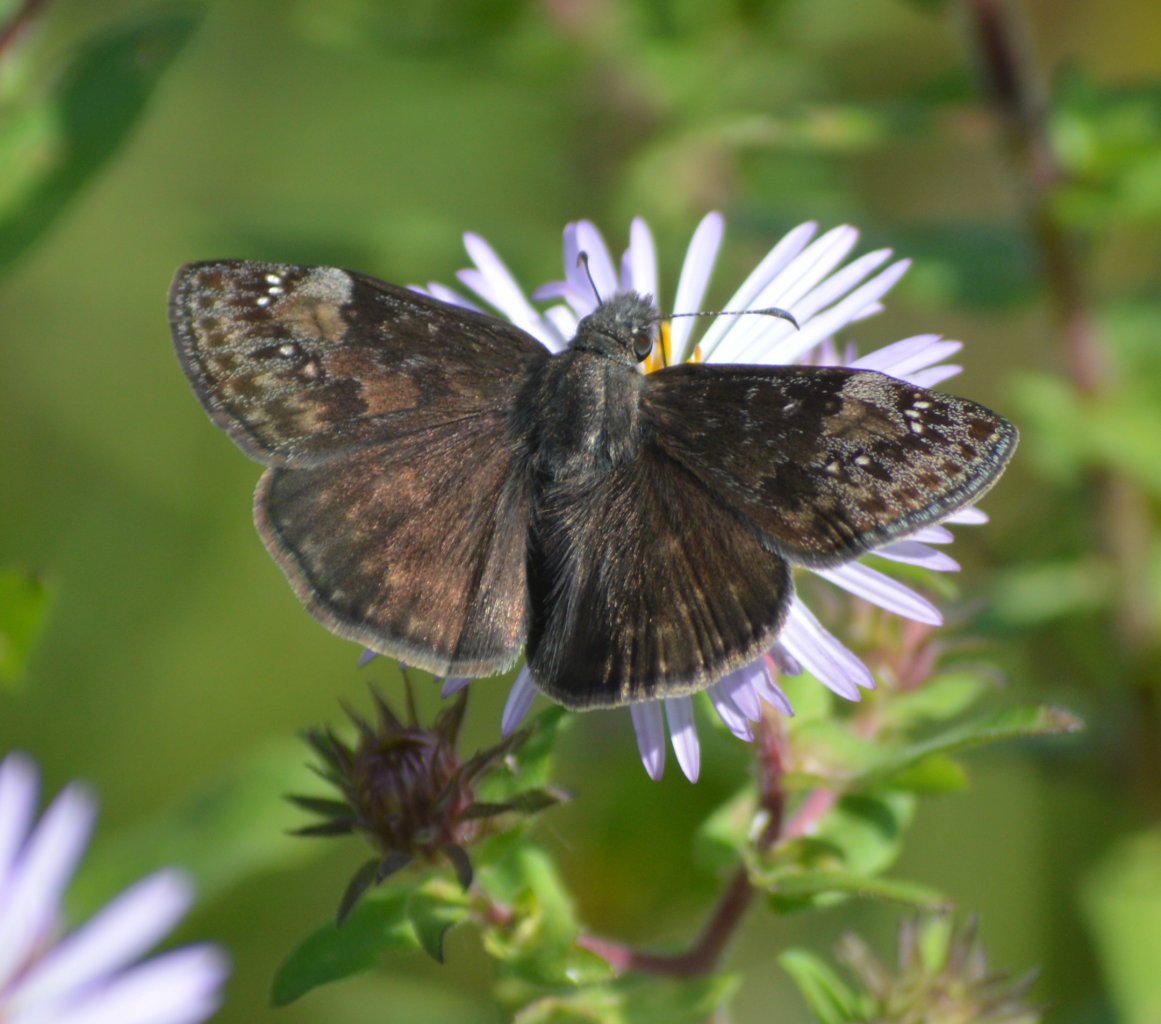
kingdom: Animalia
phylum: Arthropoda
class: Insecta
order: Lepidoptera
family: Hesperiidae
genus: Gesta
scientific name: Gesta
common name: Wild Indigo Duskywing
